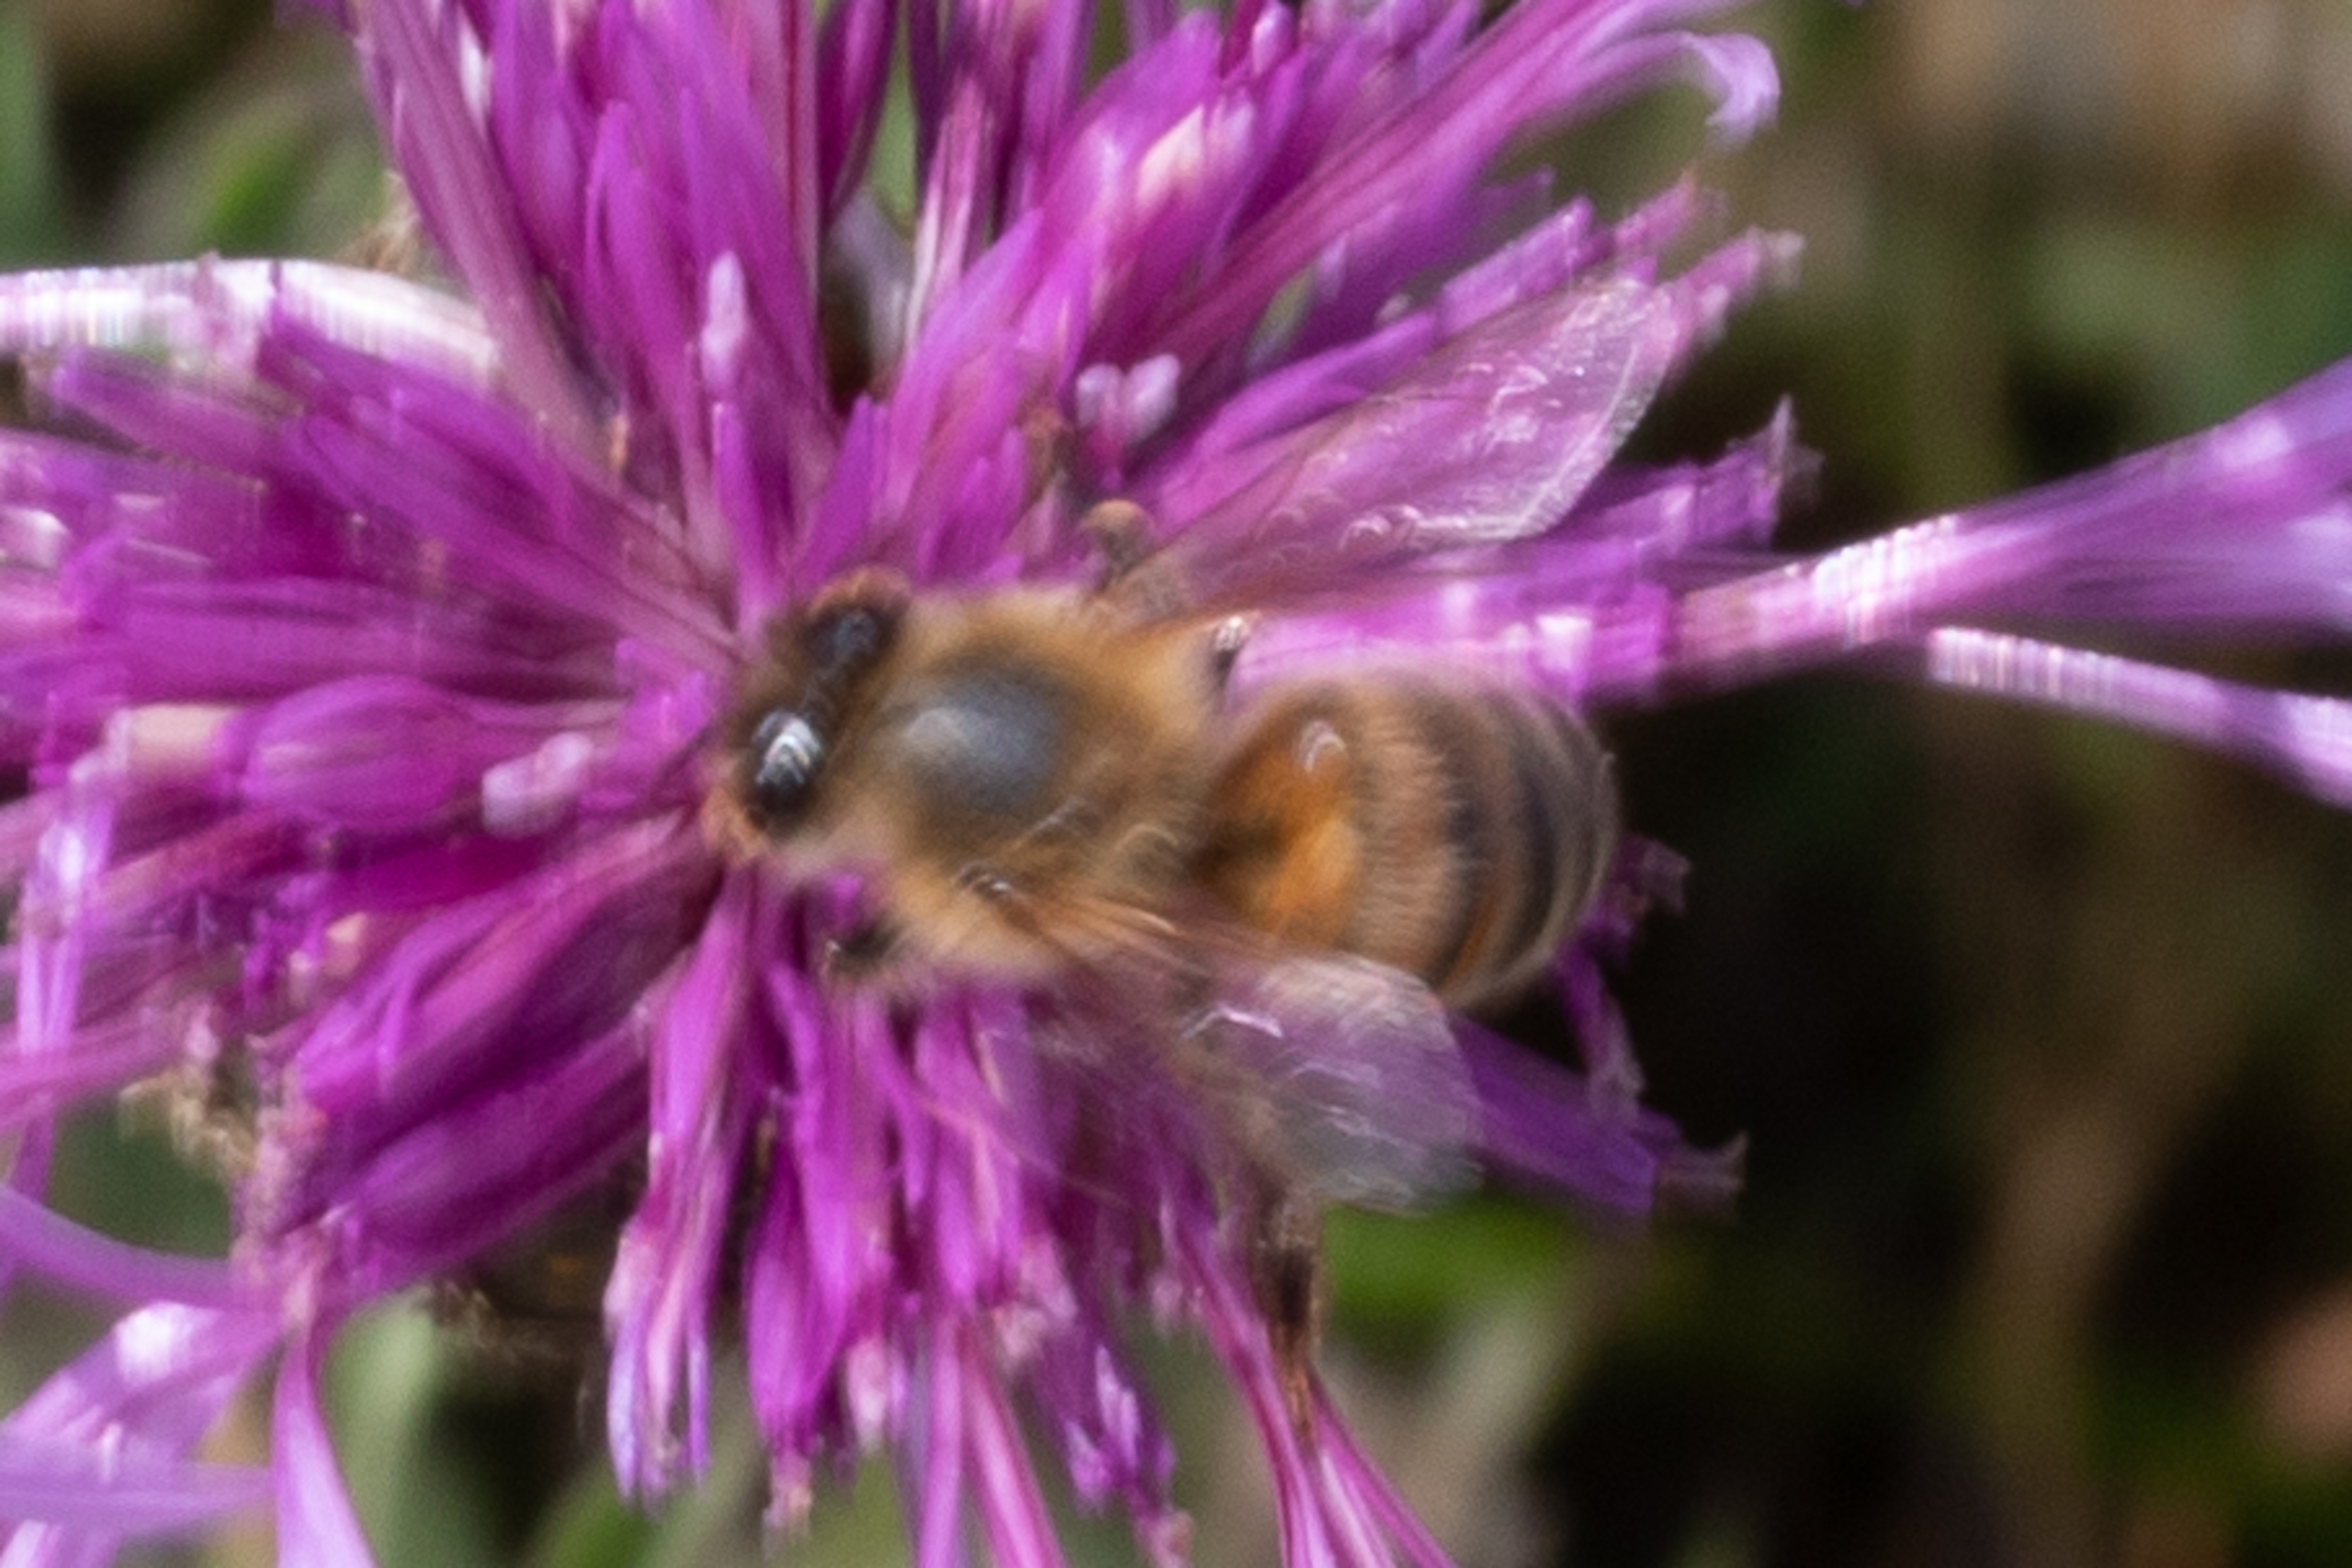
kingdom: Animalia
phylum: Arthropoda
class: Insecta
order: Hymenoptera
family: Apidae
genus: Apis
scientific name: Apis mellifera
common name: Honningbi
